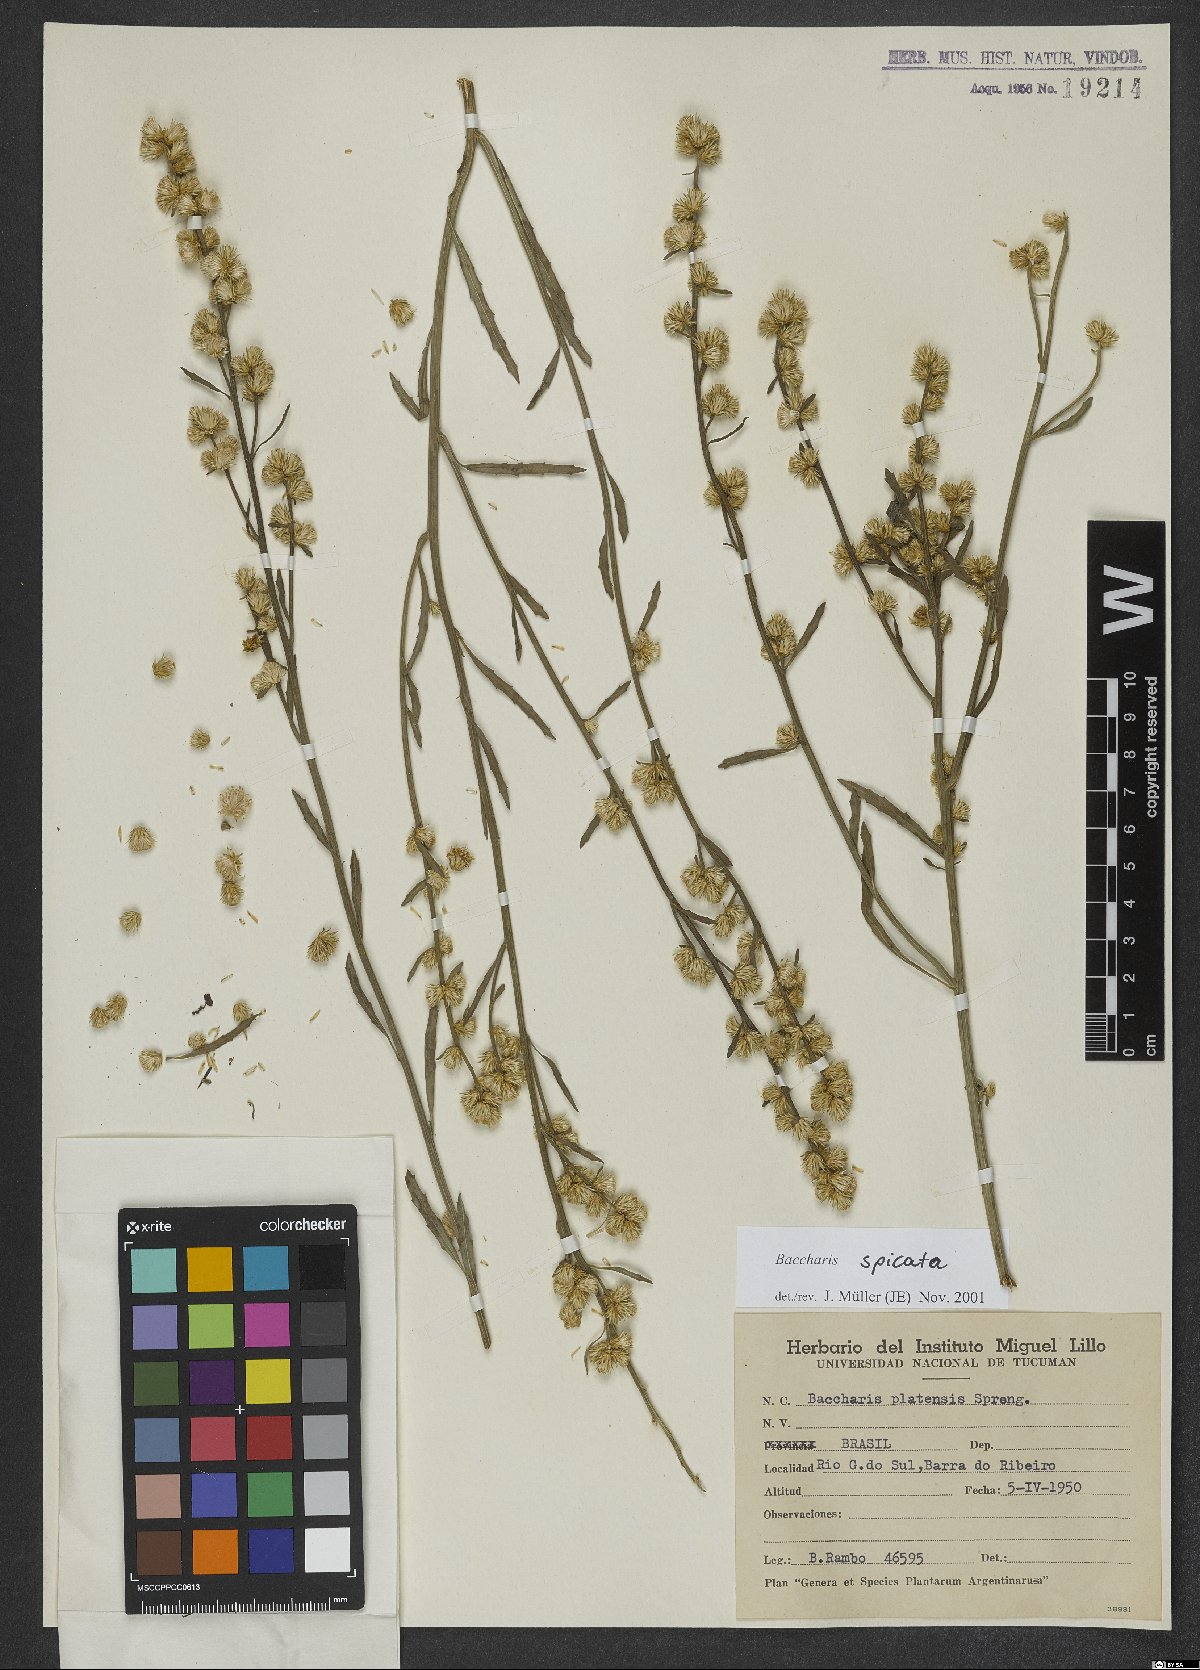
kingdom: Plantae
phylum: Tracheophyta
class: Magnoliopsida
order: Asterales
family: Asteraceae
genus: Baccharis
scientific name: Baccharis spicata
